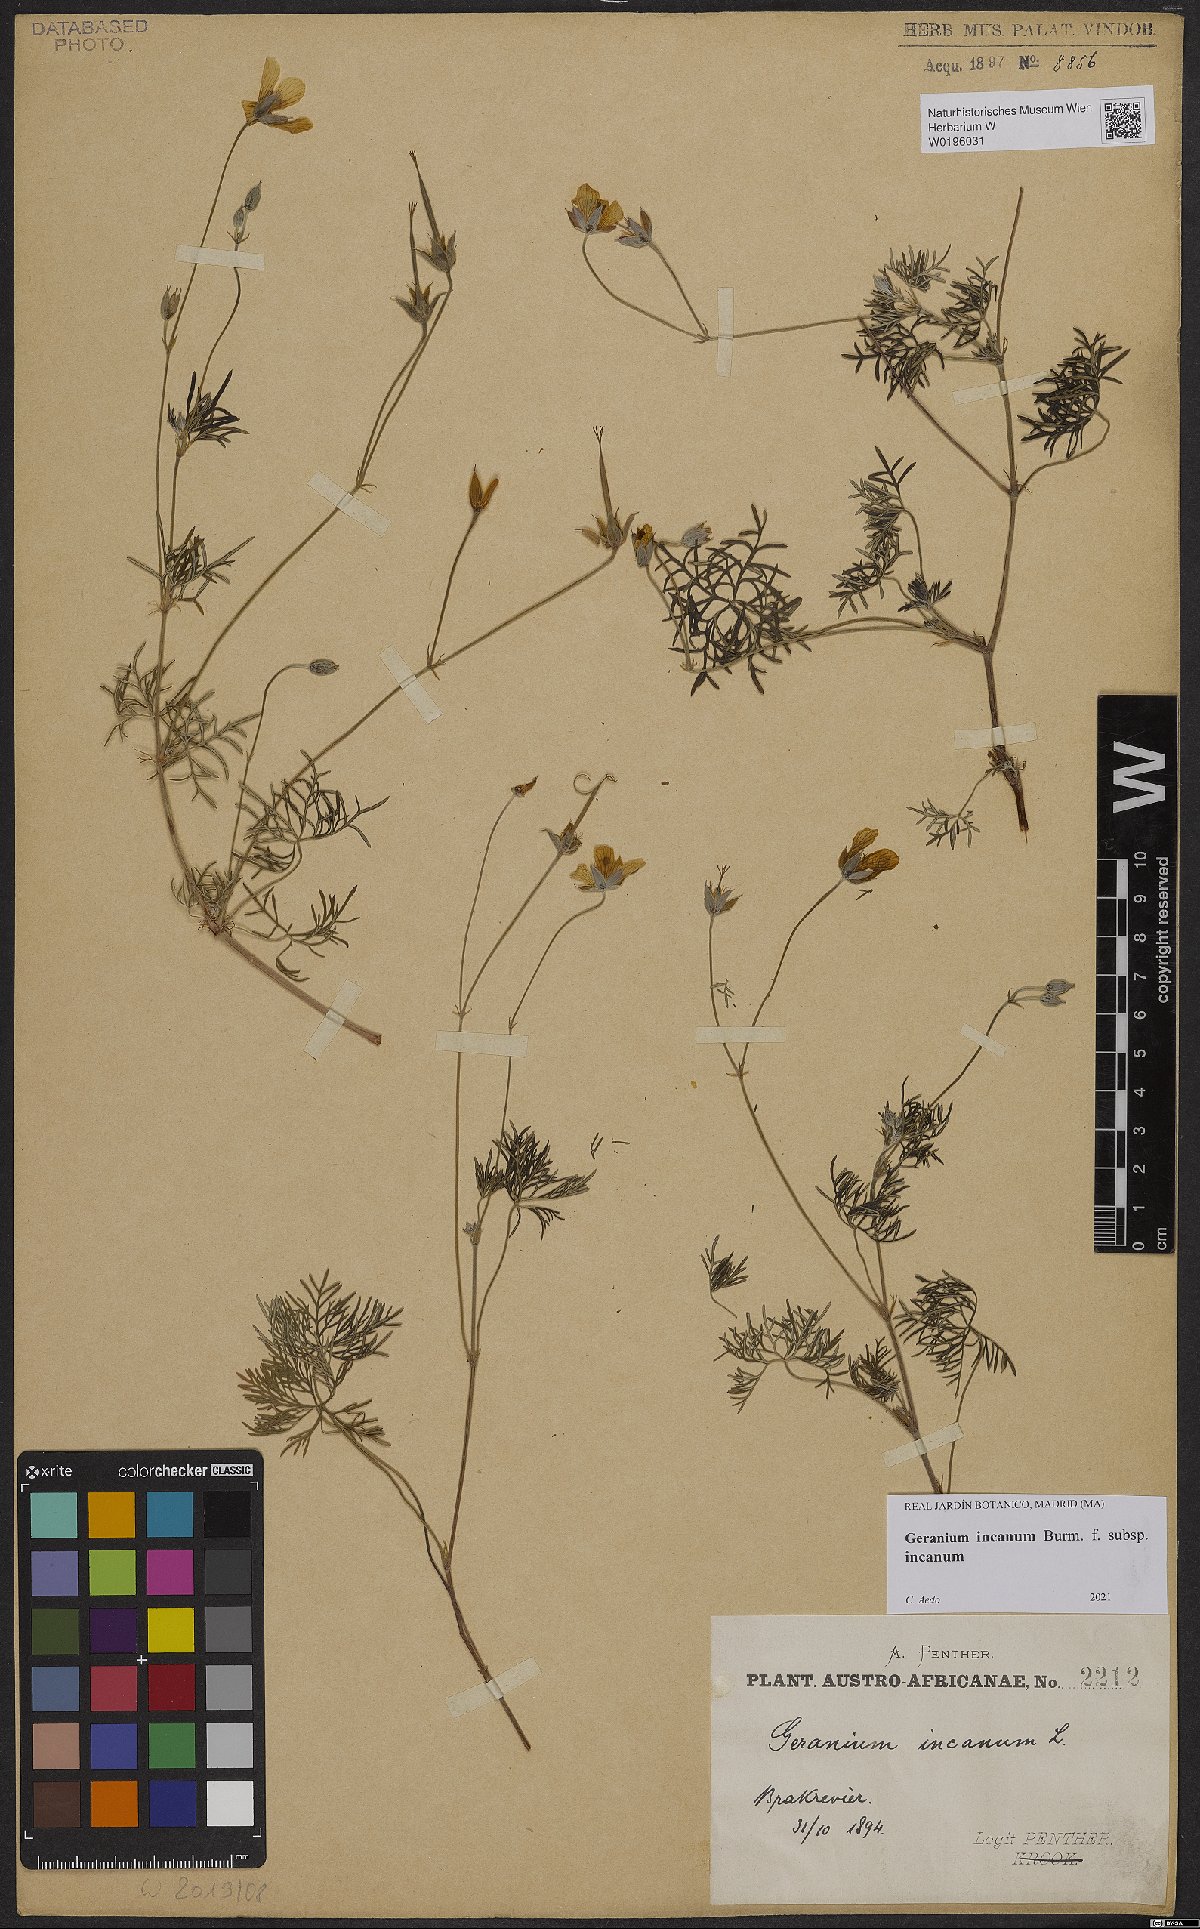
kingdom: Plantae
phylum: Tracheophyta
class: Magnoliopsida
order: Geraniales
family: Geraniaceae
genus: Geranium
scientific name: Geranium incanum
